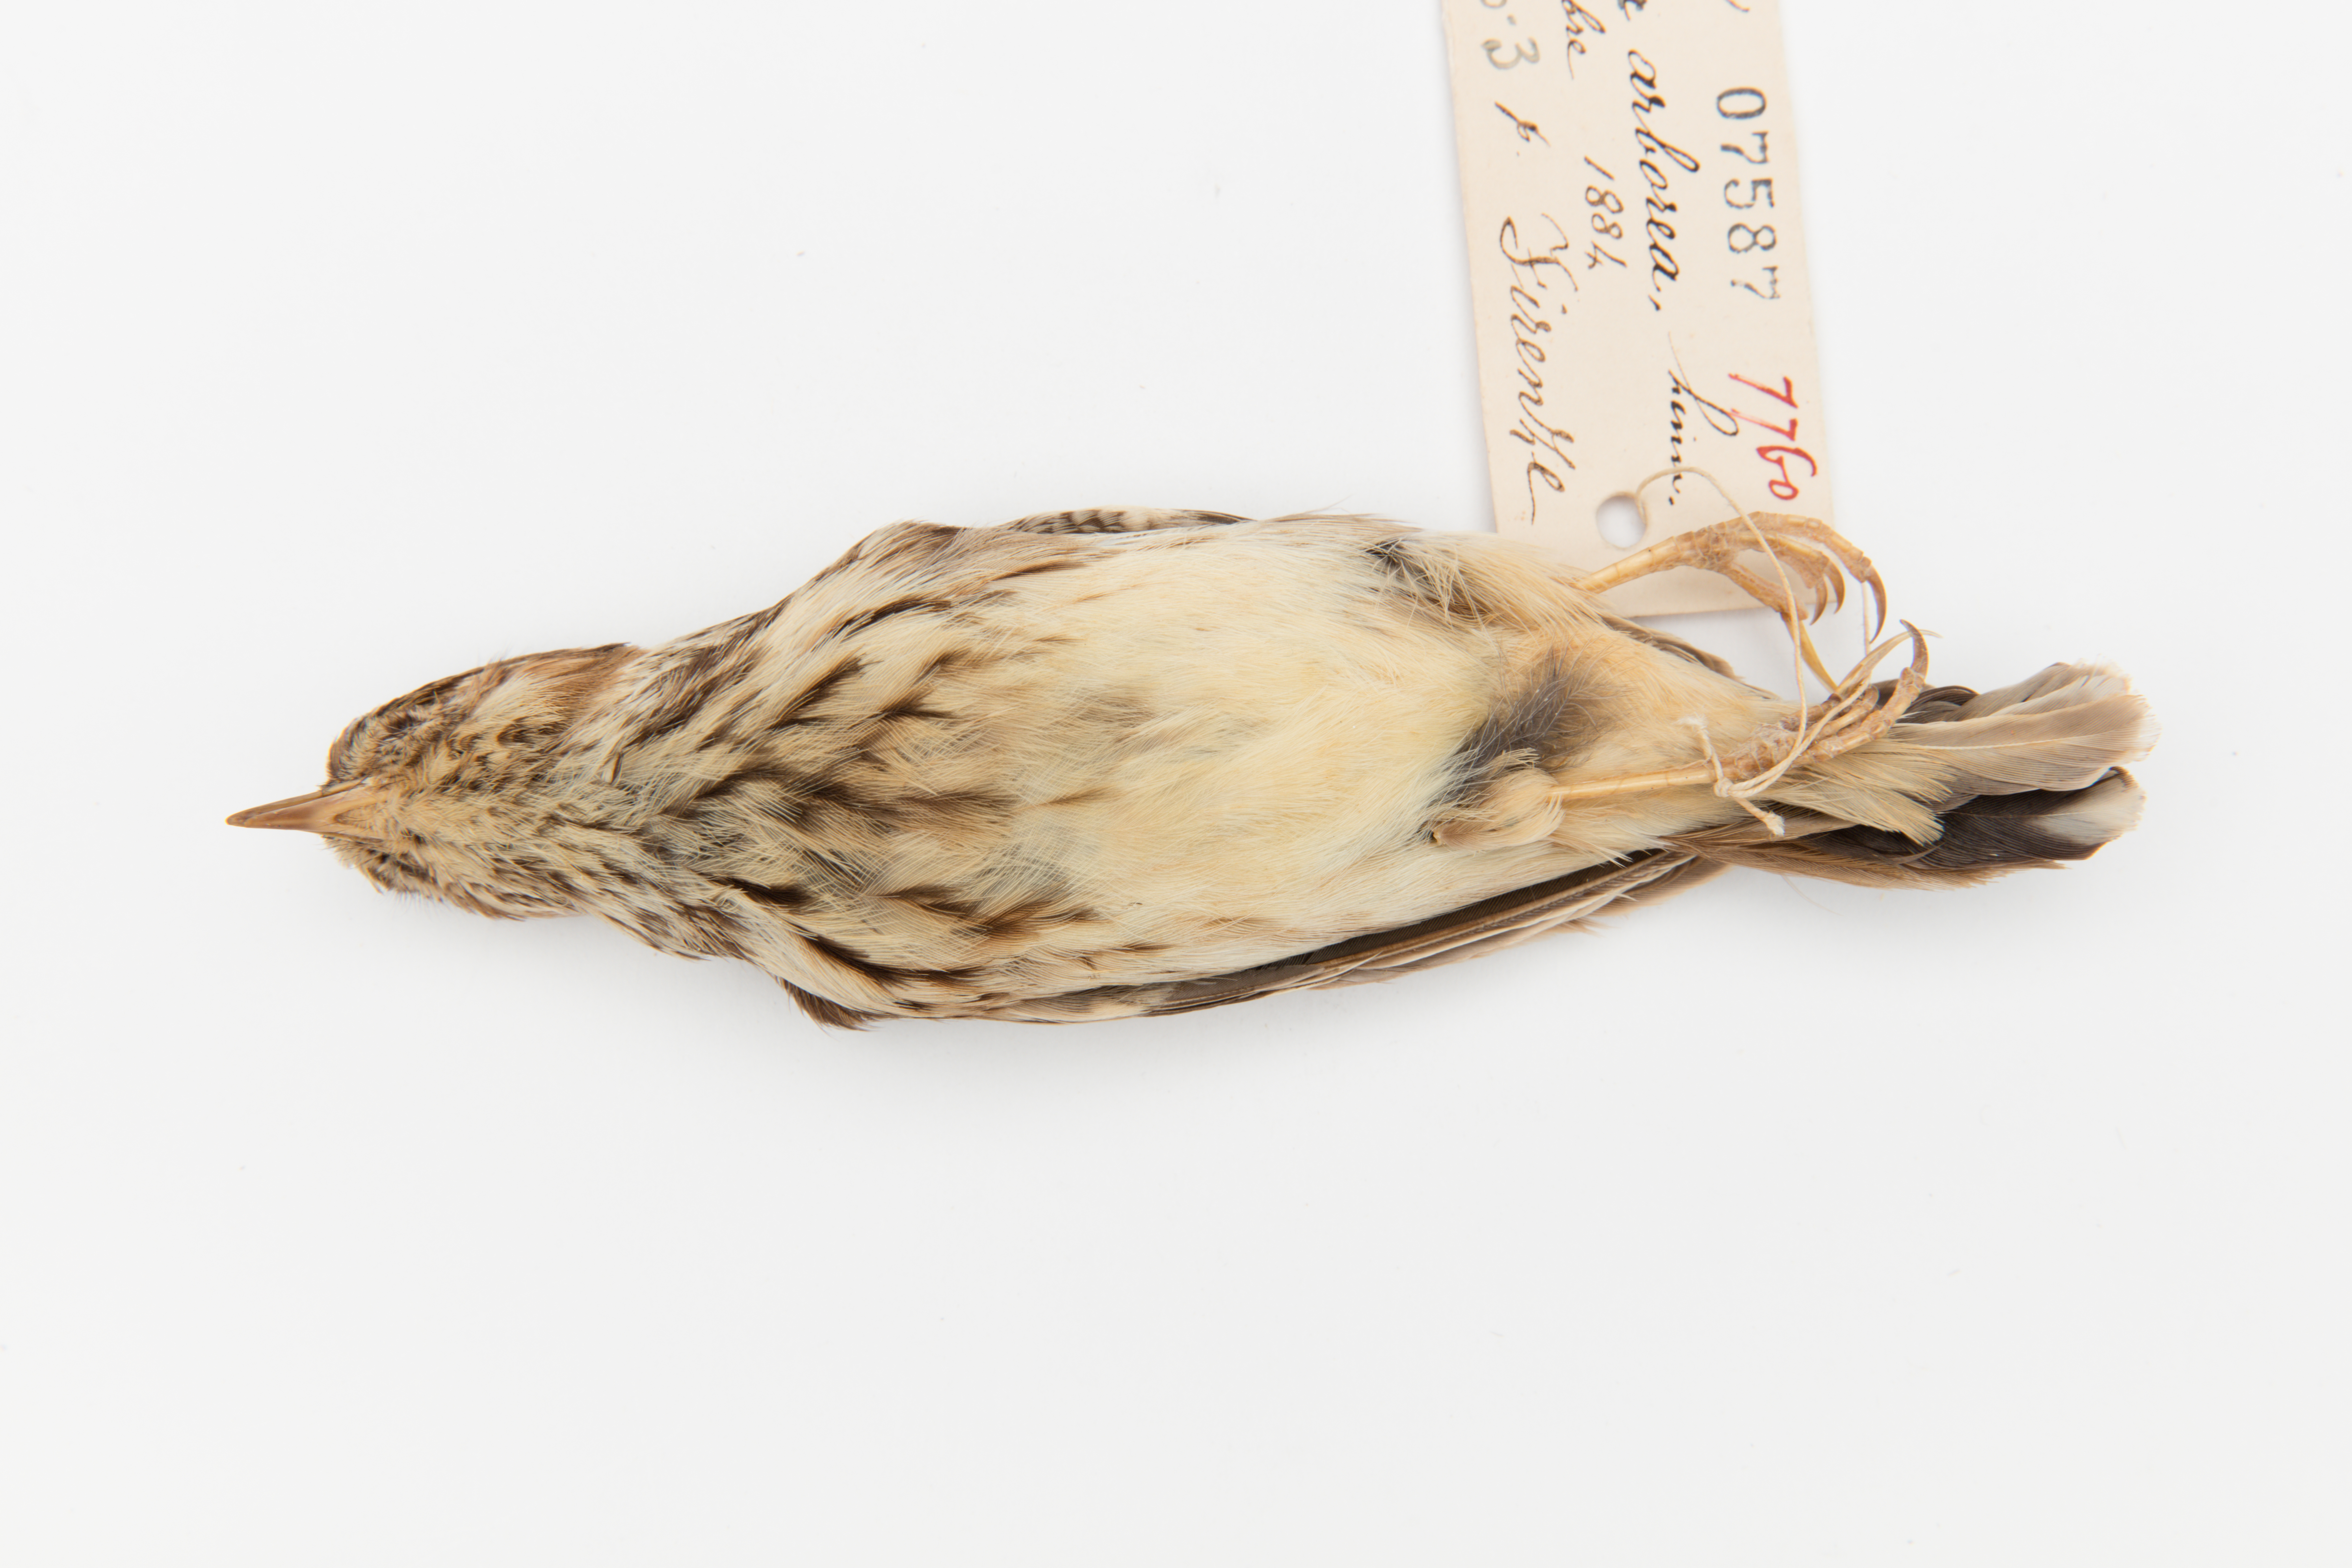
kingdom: Animalia
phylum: Chordata
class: Aves
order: Passeriformes
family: Alaudidae
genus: Lullula
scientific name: Lullula arborea
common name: Woodlark
